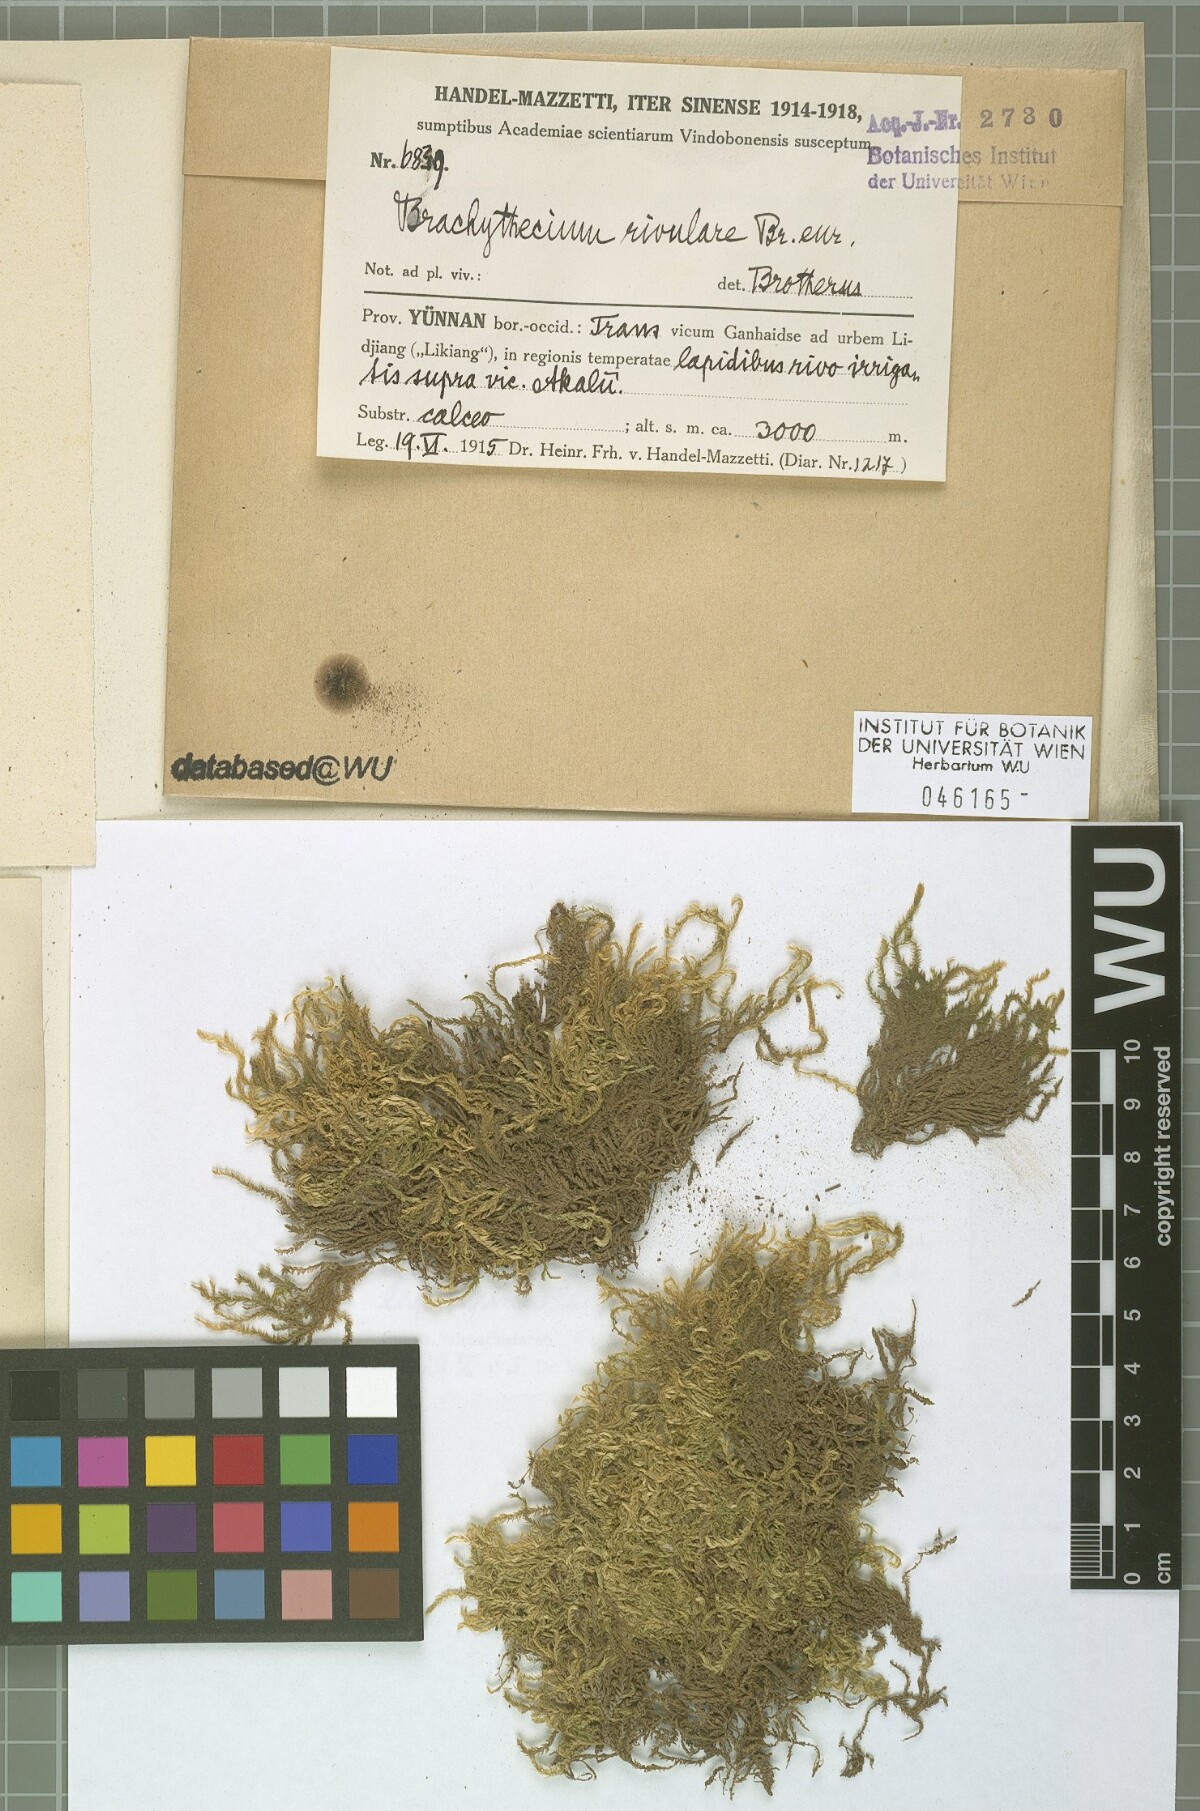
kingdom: Plantae
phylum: Bryophyta
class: Bryopsida
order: Hypnales
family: Brachytheciaceae
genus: Brachythecium
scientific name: Brachythecium rivulare
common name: River ragged moss
